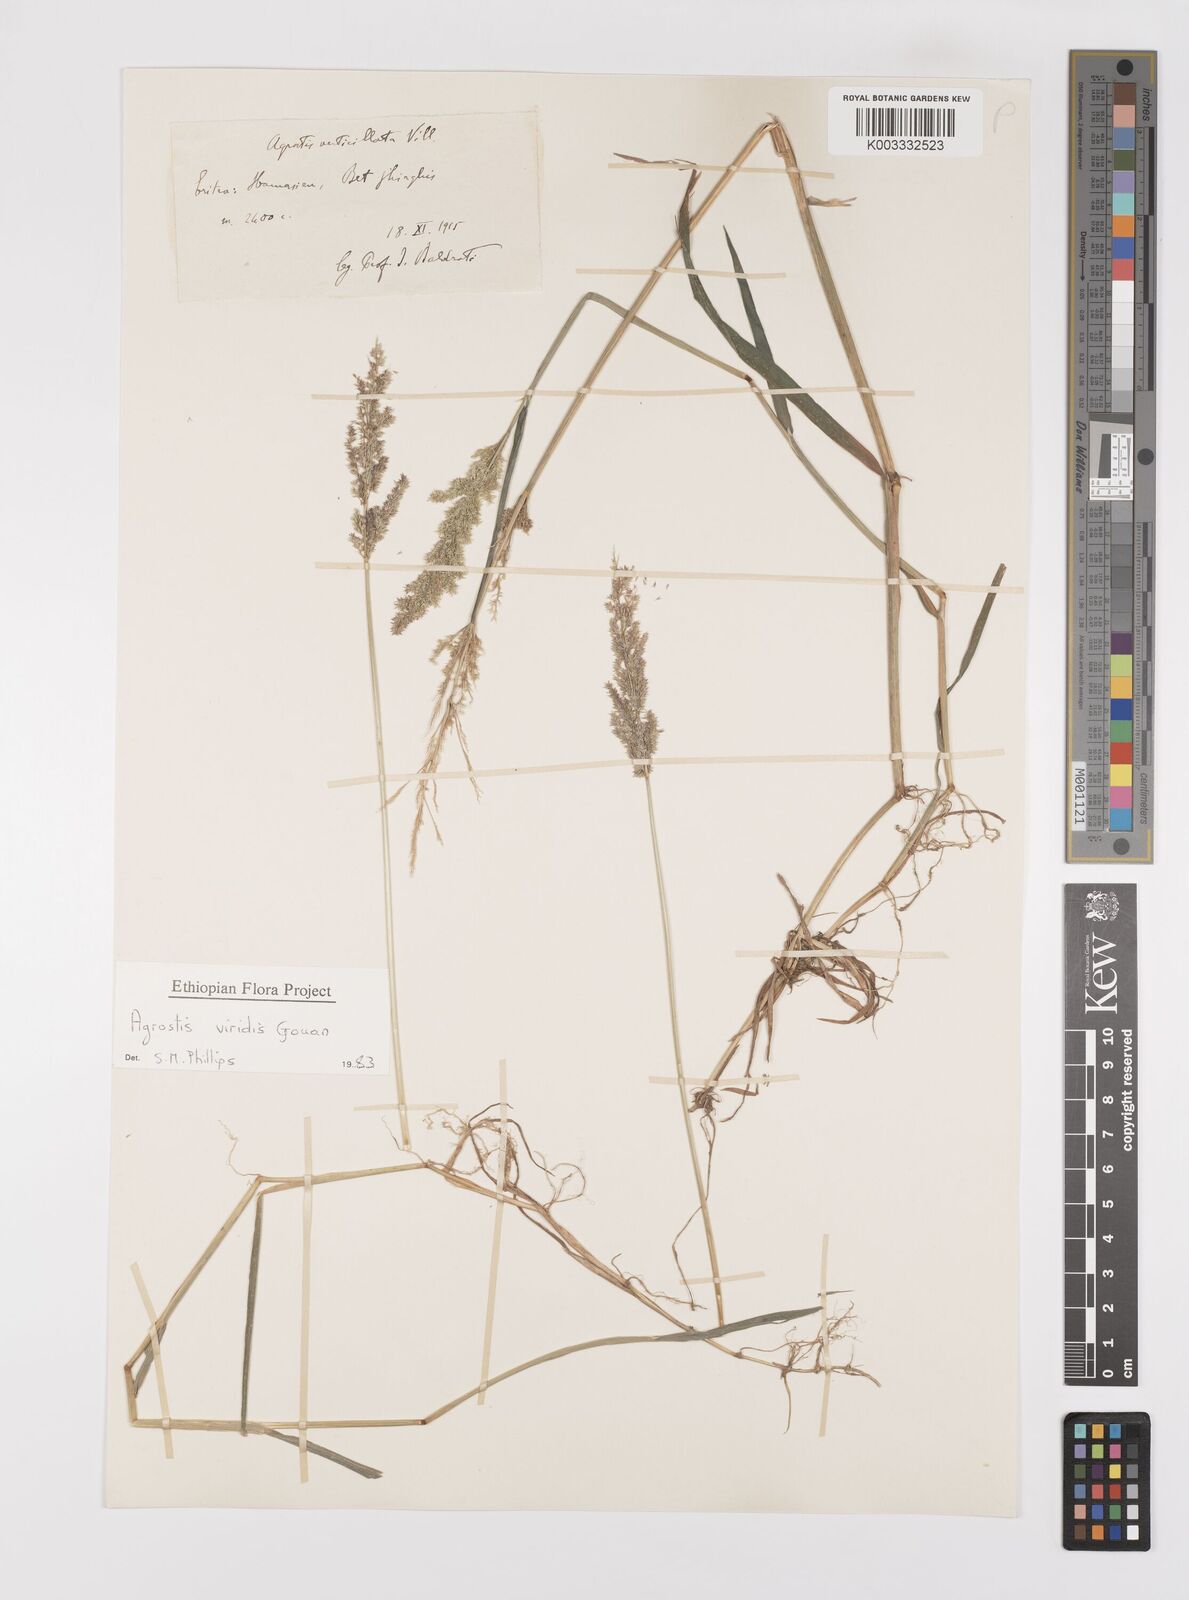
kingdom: Plantae
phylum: Tracheophyta
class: Liliopsida
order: Poales
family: Poaceae
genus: Polypogon
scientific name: Polypogon viridis
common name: Water bent
